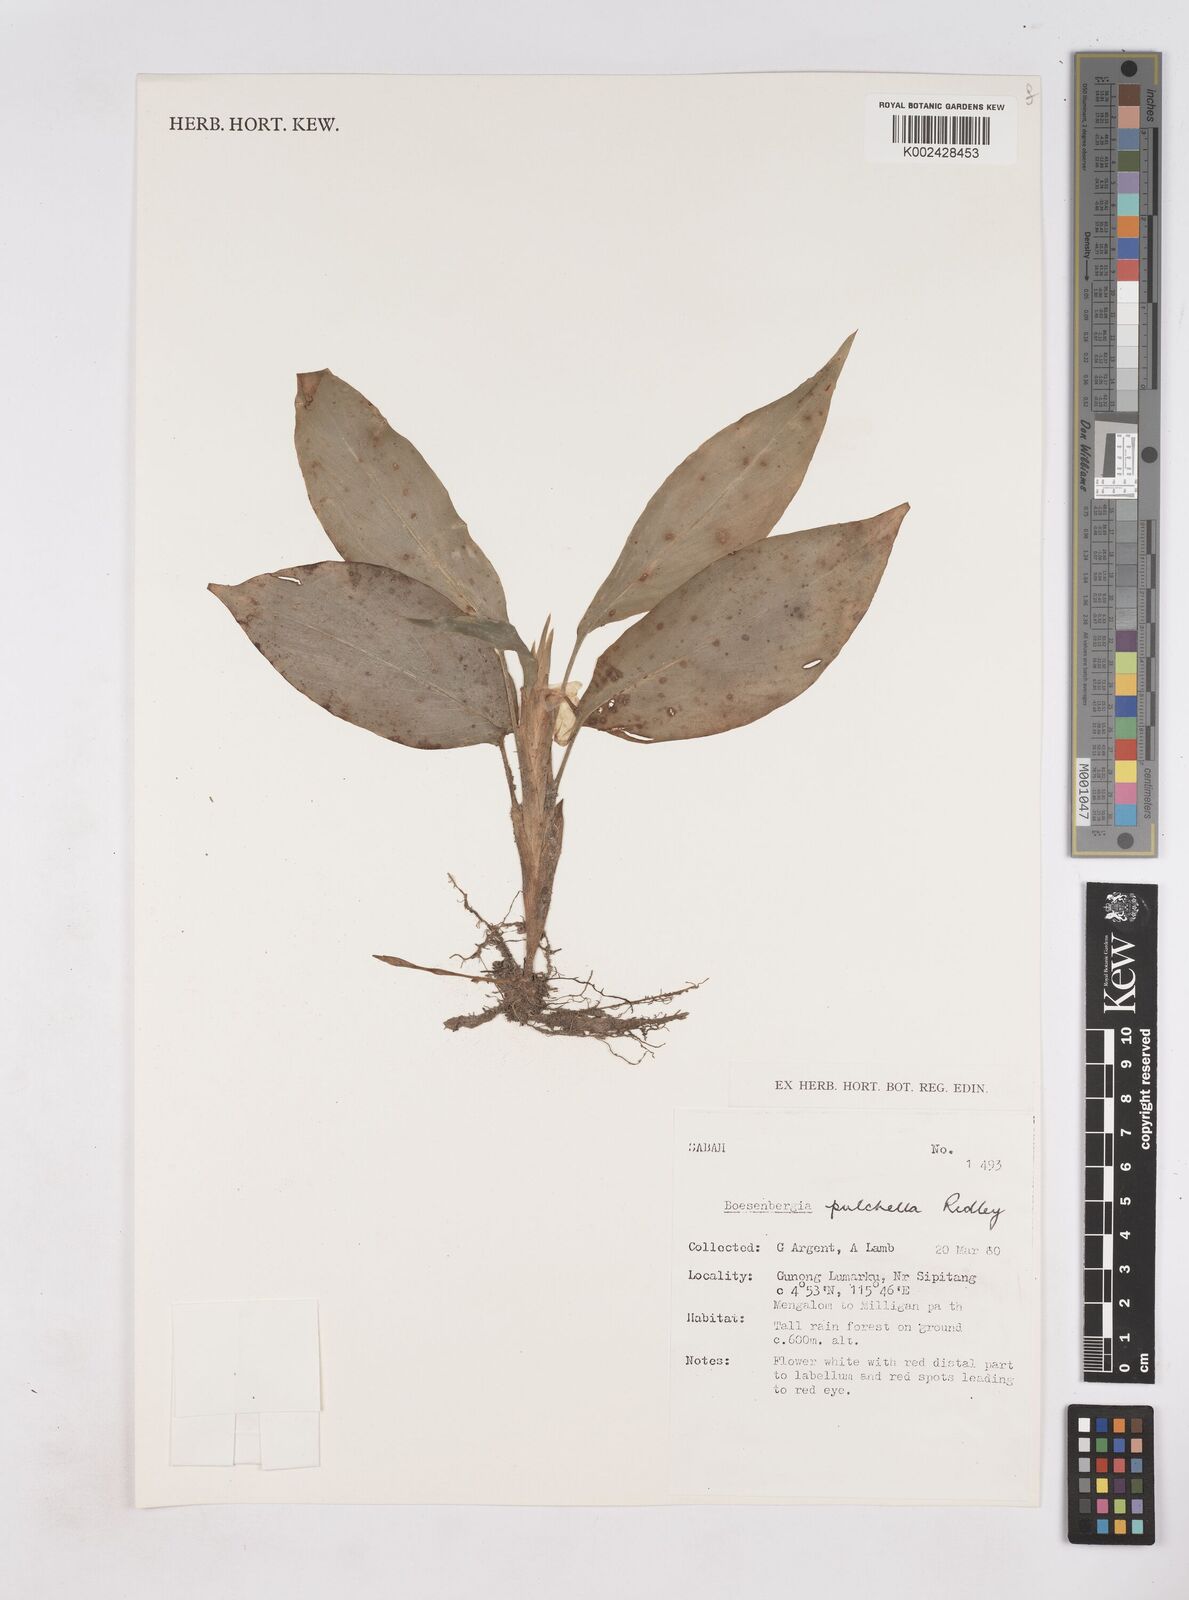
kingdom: Plantae
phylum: Tracheophyta
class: Liliopsida
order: Zingiberales
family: Zingiberaceae
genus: Boesenbergia
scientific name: Boesenbergia pulchella
